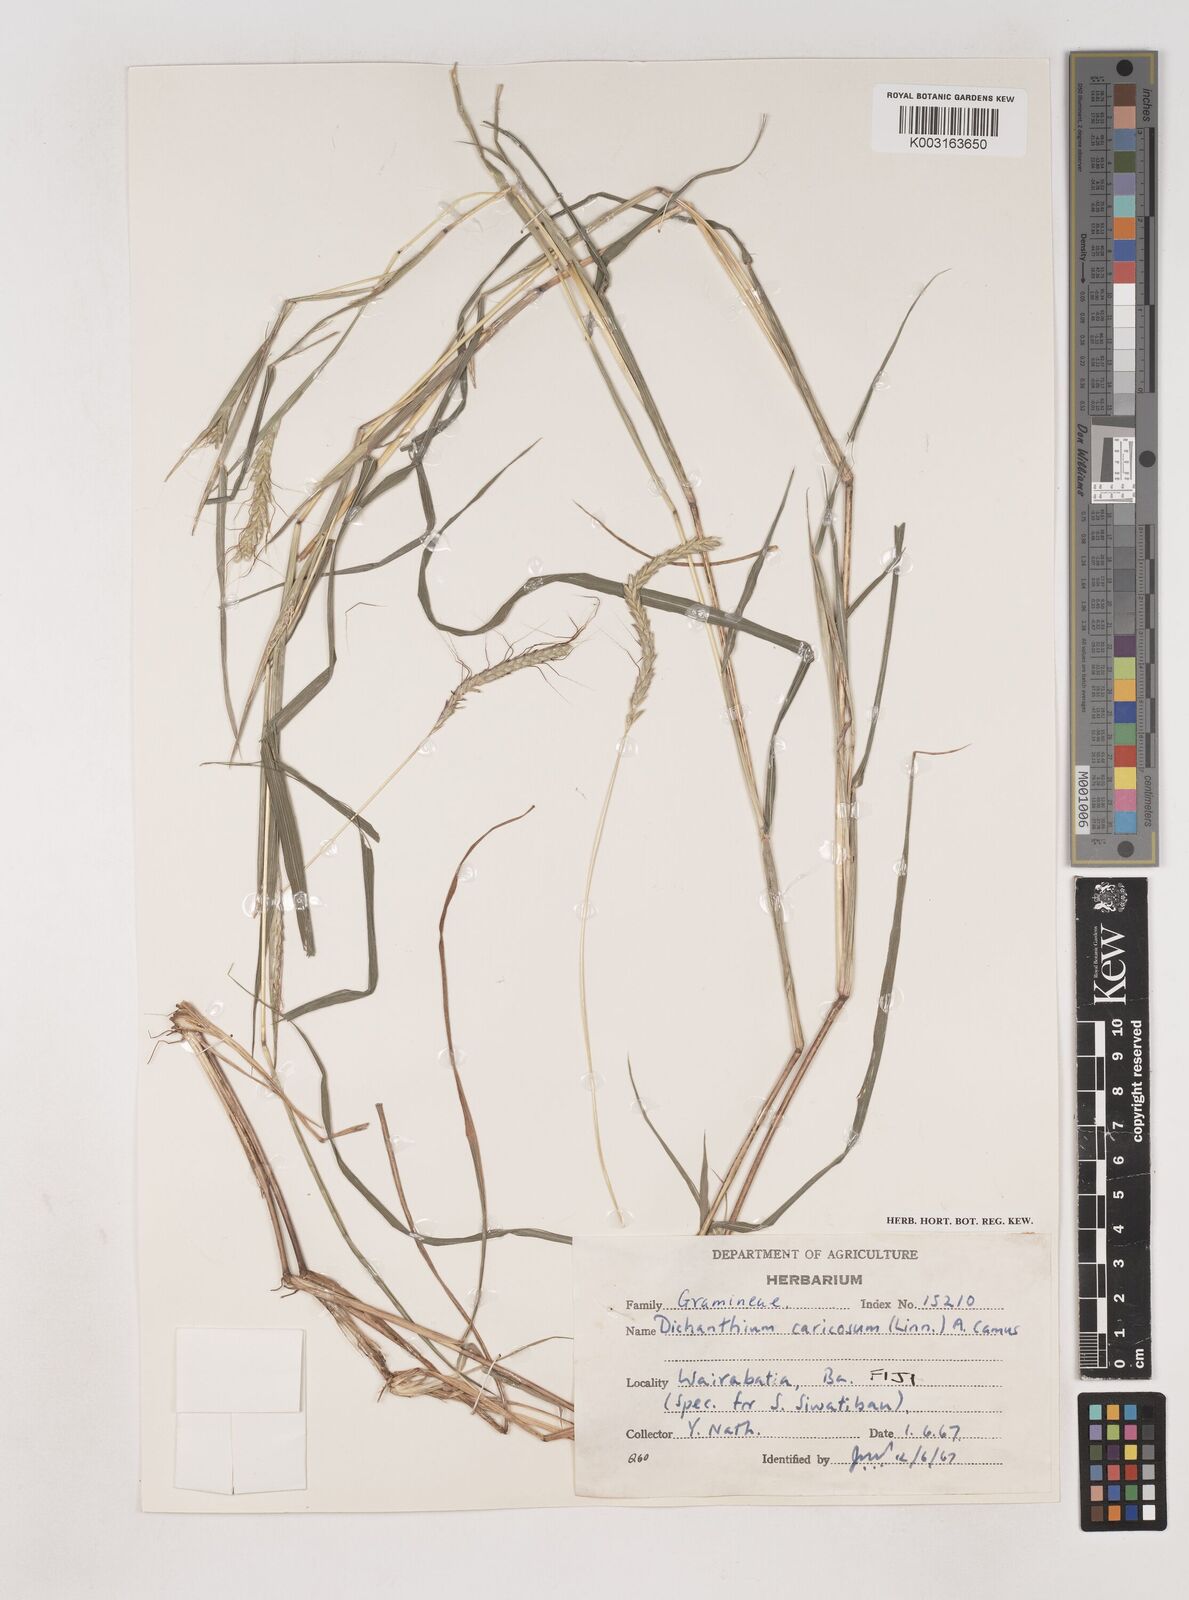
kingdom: Plantae
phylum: Tracheophyta
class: Liliopsida
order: Poales
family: Poaceae
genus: Dichanthium
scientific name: Dichanthium caricosum
